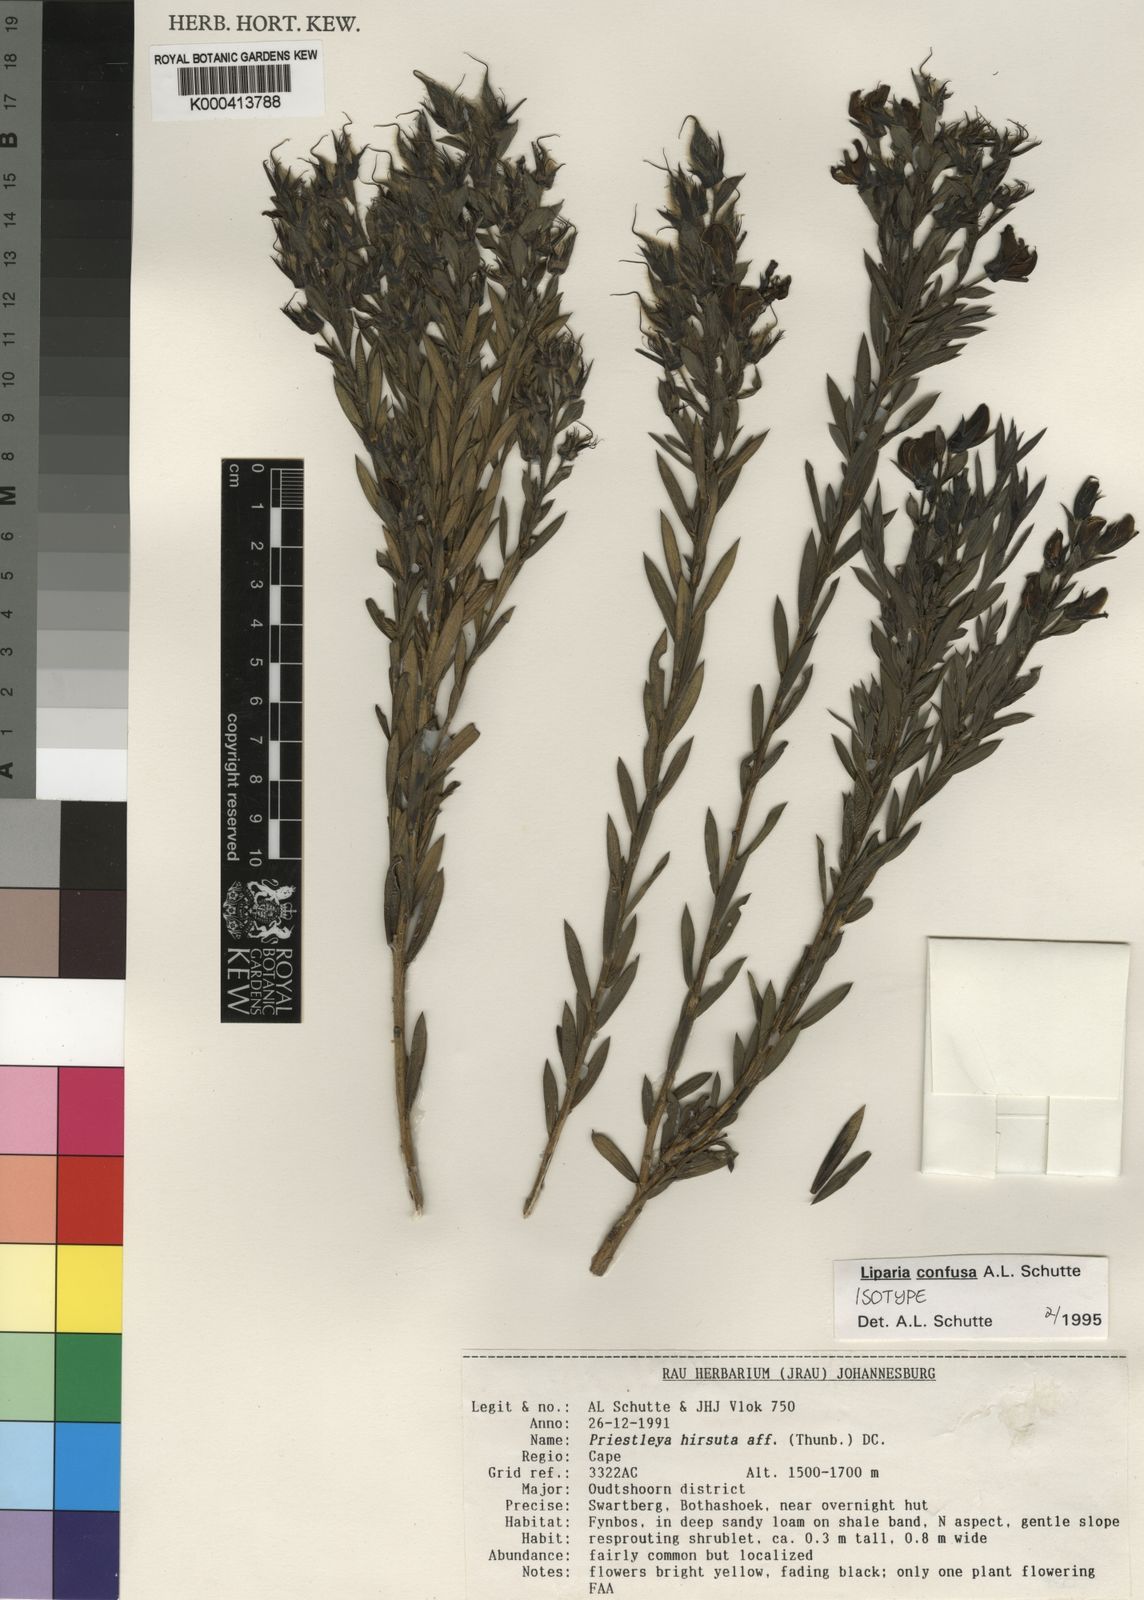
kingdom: Plantae
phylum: Tracheophyta
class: Magnoliopsida
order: Fabales
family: Fabaceae
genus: Liparia
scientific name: Liparia confusa
